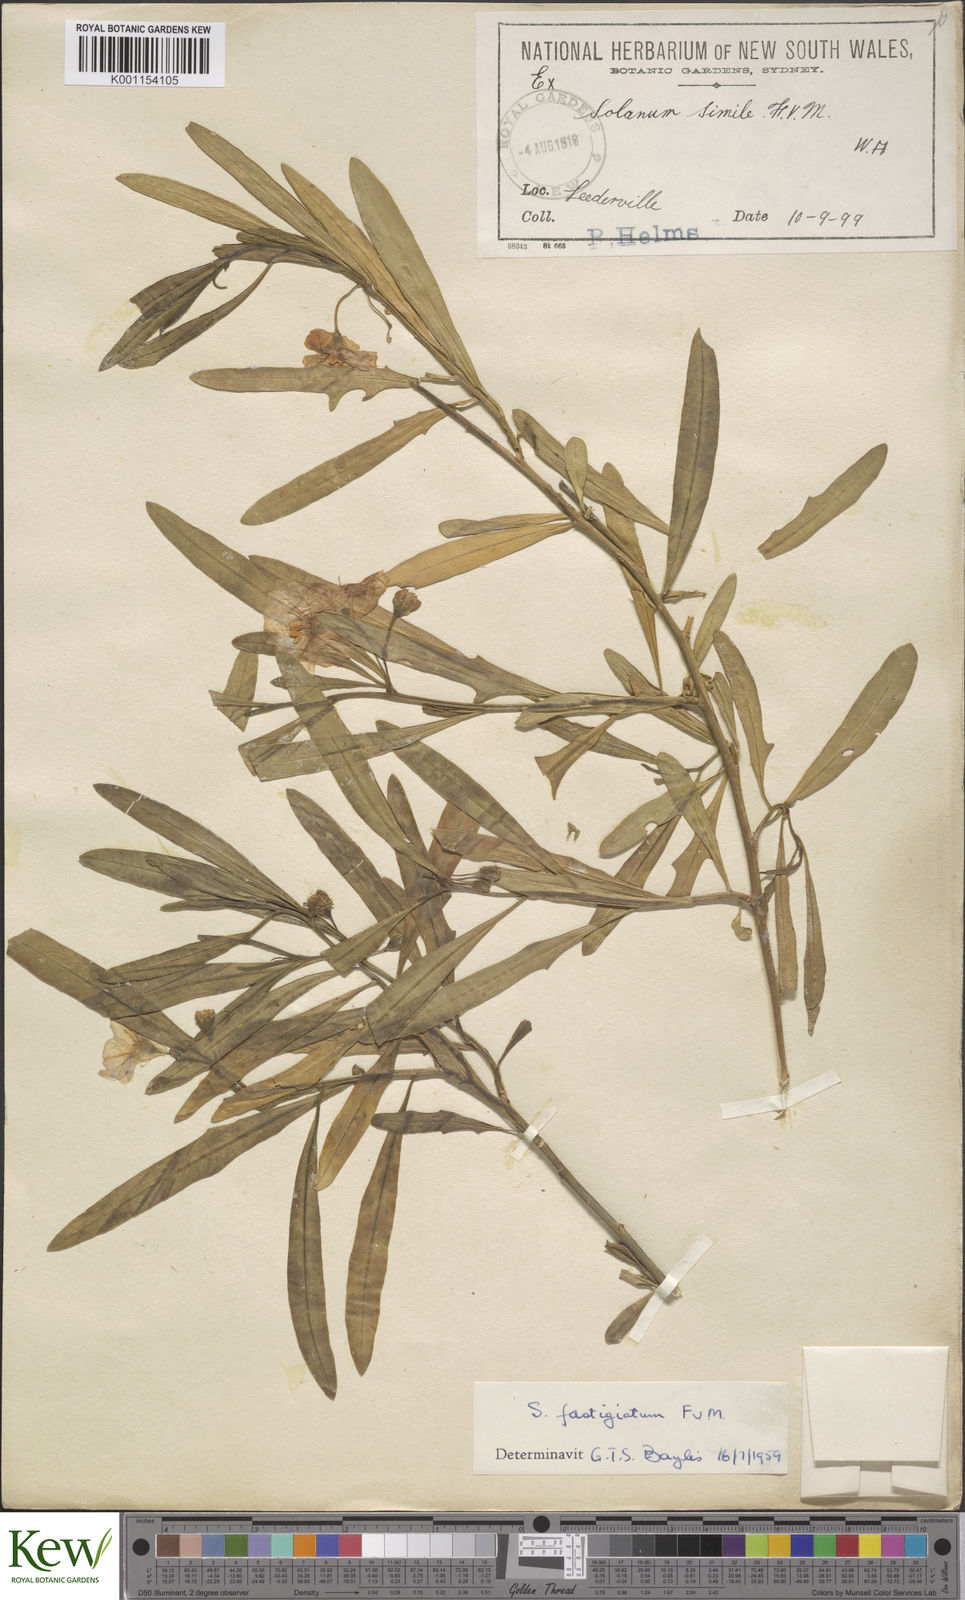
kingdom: Plantae
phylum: Tracheophyta
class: Magnoliopsida
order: Solanales
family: Solanaceae
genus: Solanum
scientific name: Solanum symonii
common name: South australian kangaroo-apple
